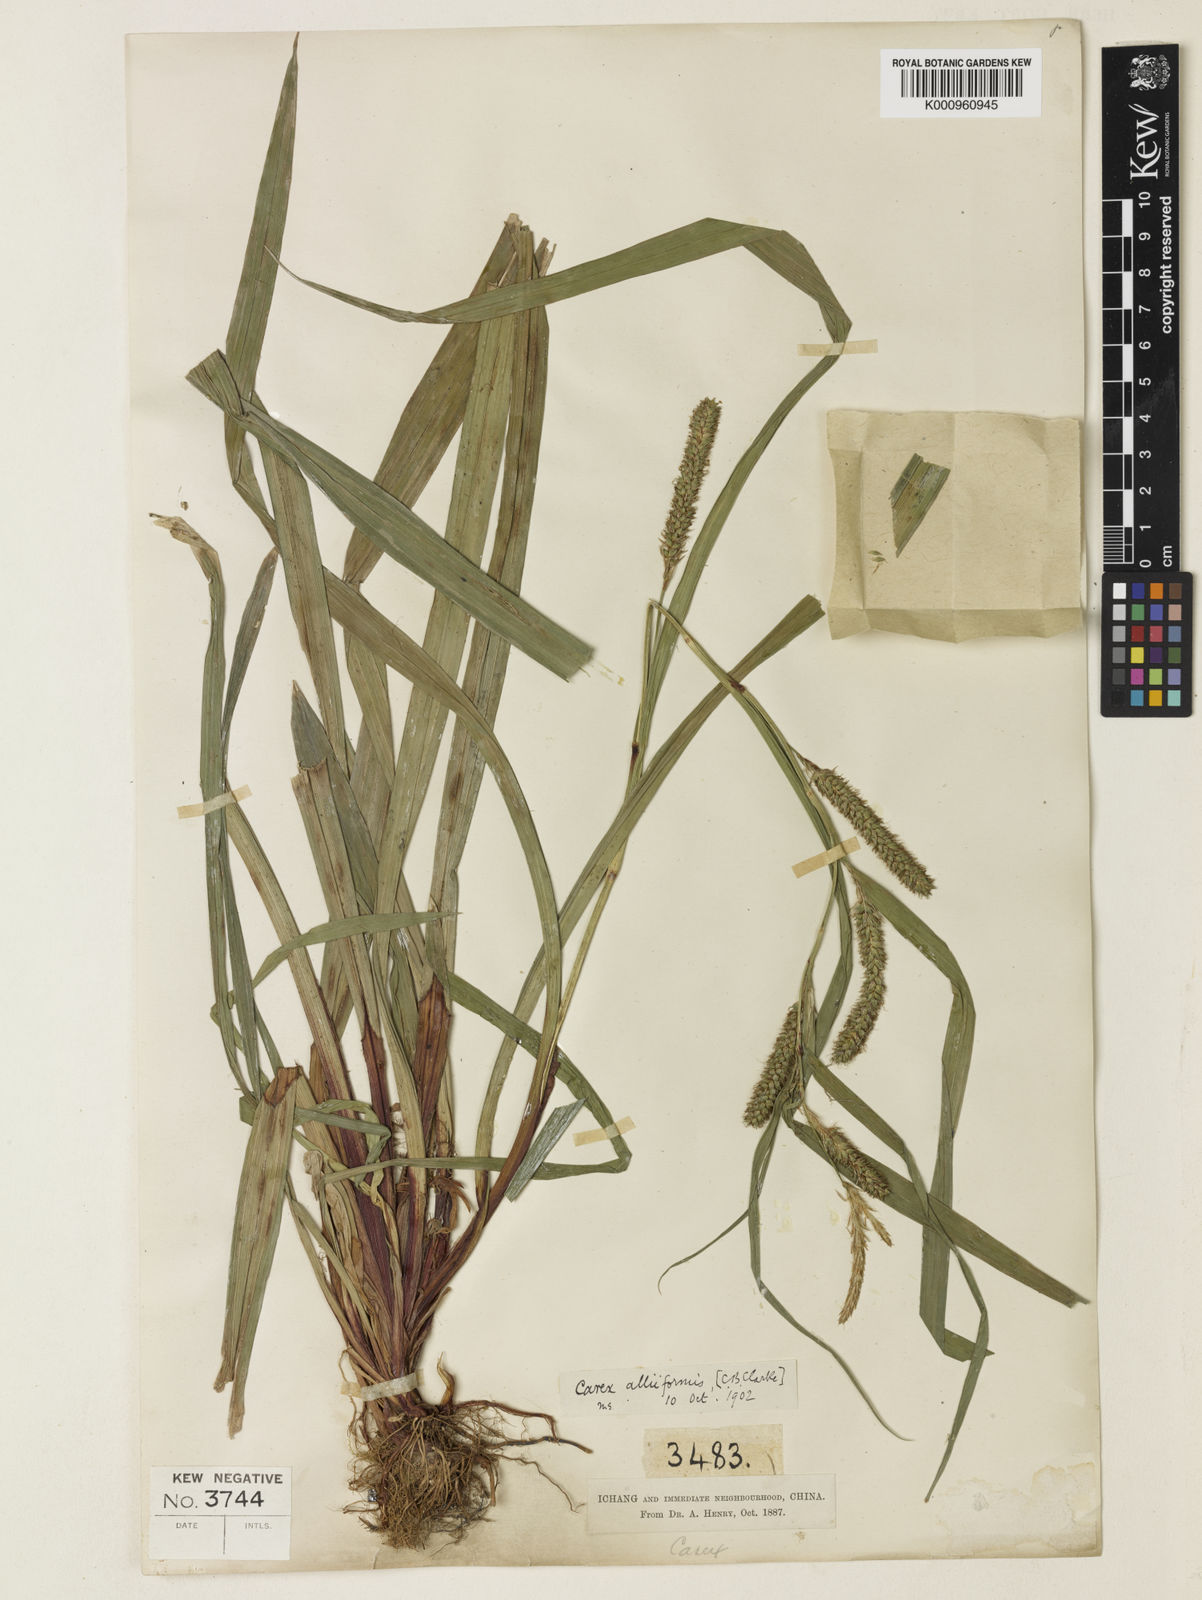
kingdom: Plantae
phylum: Tracheophyta
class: Liliopsida
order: Poales
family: Cyperaceae
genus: Carex
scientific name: Carex alliiformis
